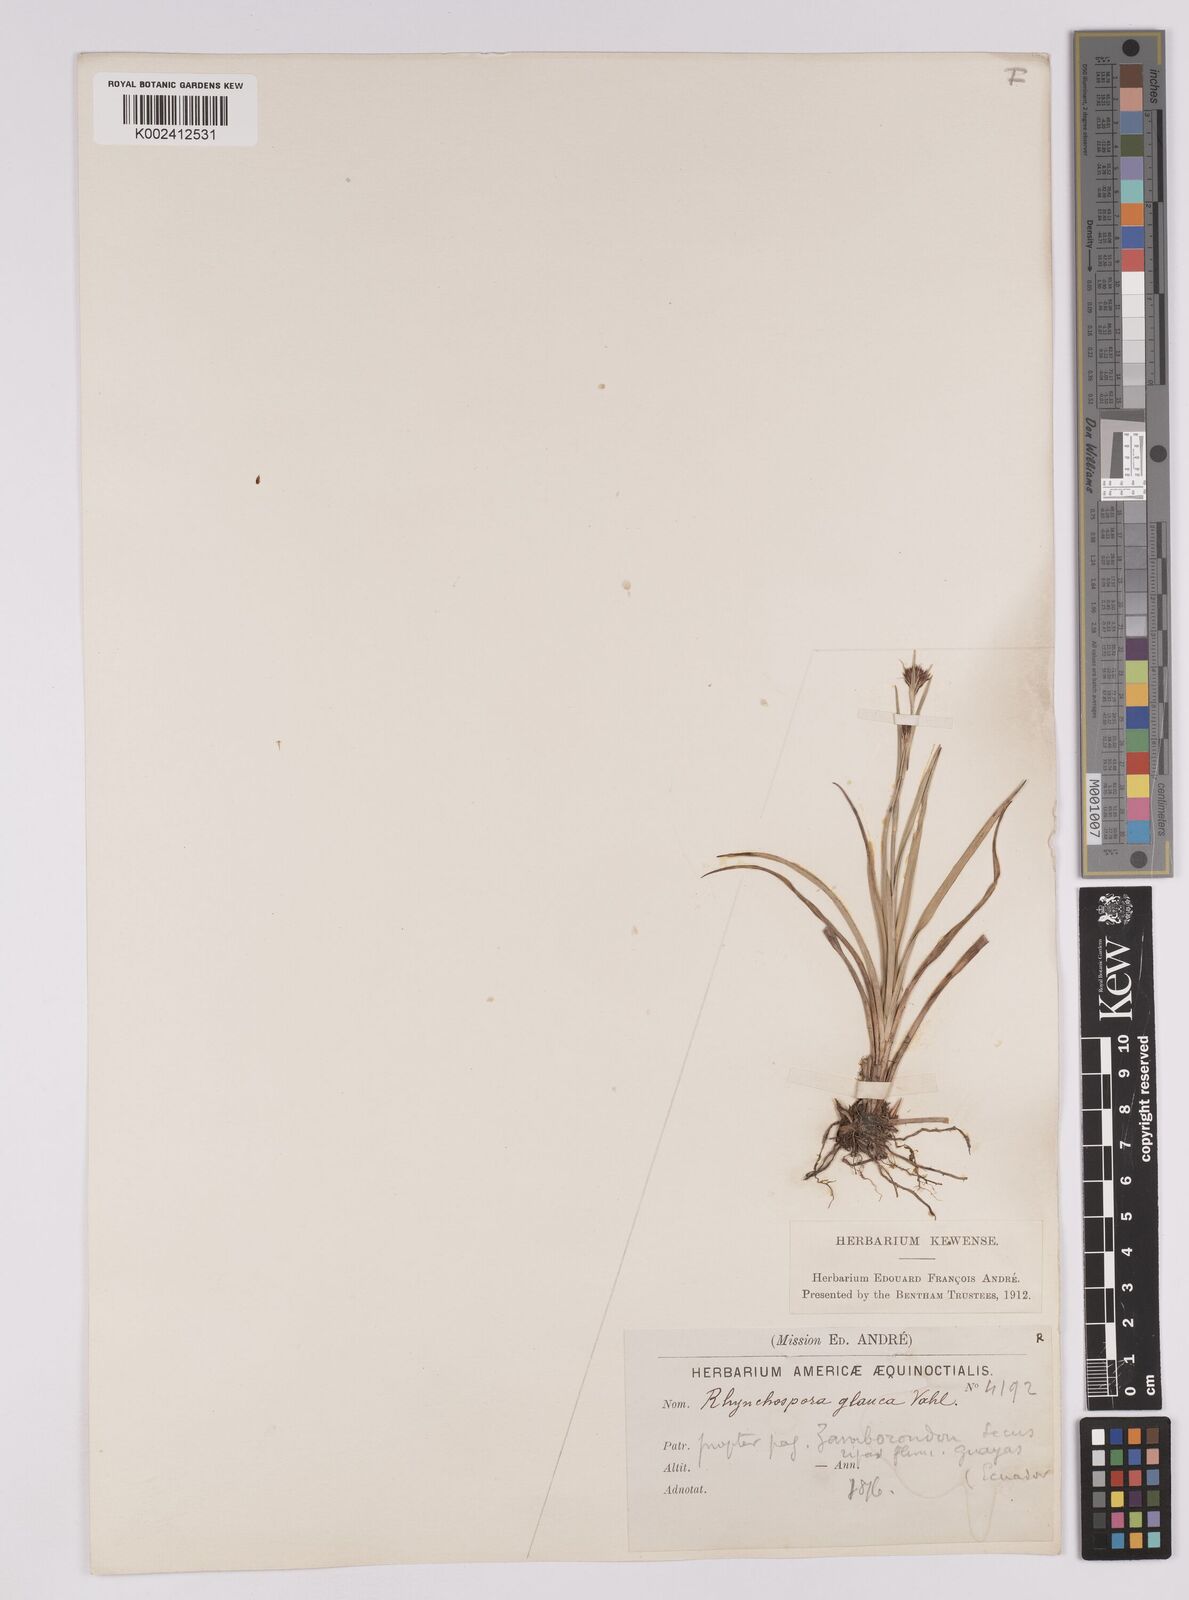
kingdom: Plantae
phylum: Tracheophyta
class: Liliopsida
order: Poales
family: Cyperaceae
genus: Rhynchospora
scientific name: Rhynchospora rugosa
